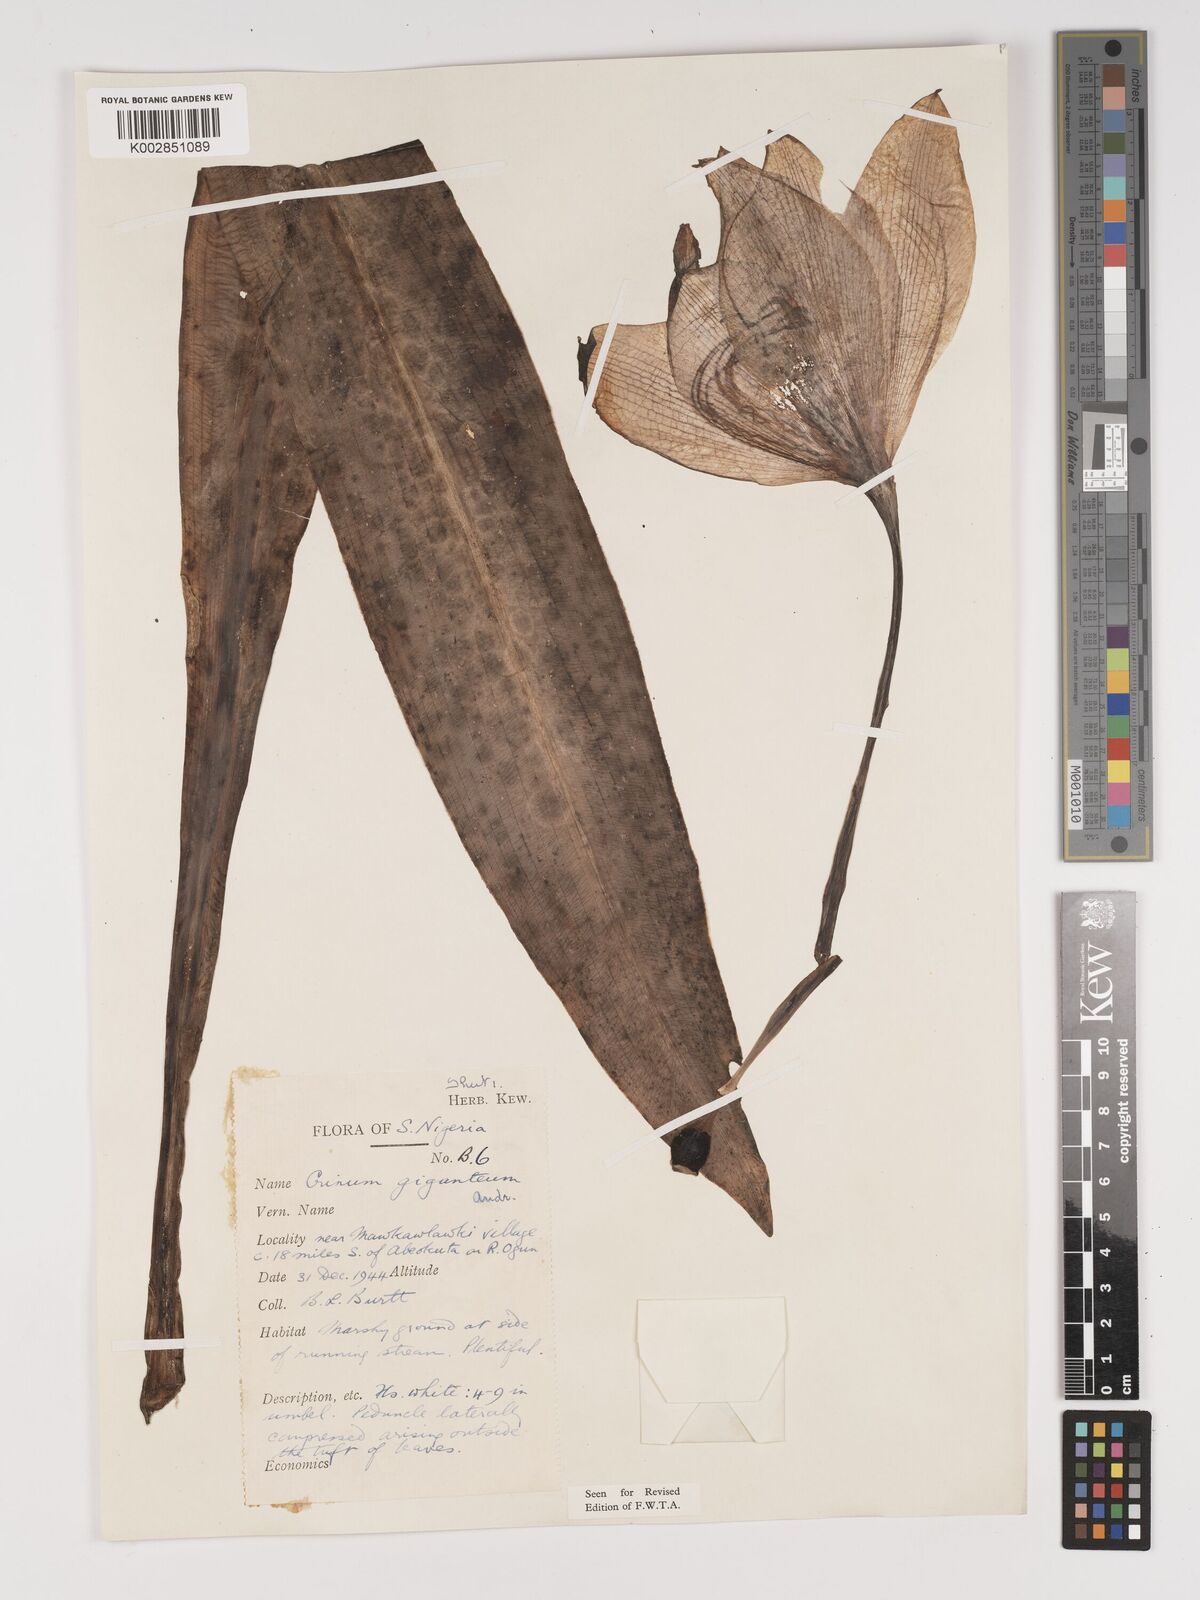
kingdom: Plantae
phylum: Tracheophyta
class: Liliopsida
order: Asparagales
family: Amaryllidaceae
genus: Crinum
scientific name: Crinum jagus
